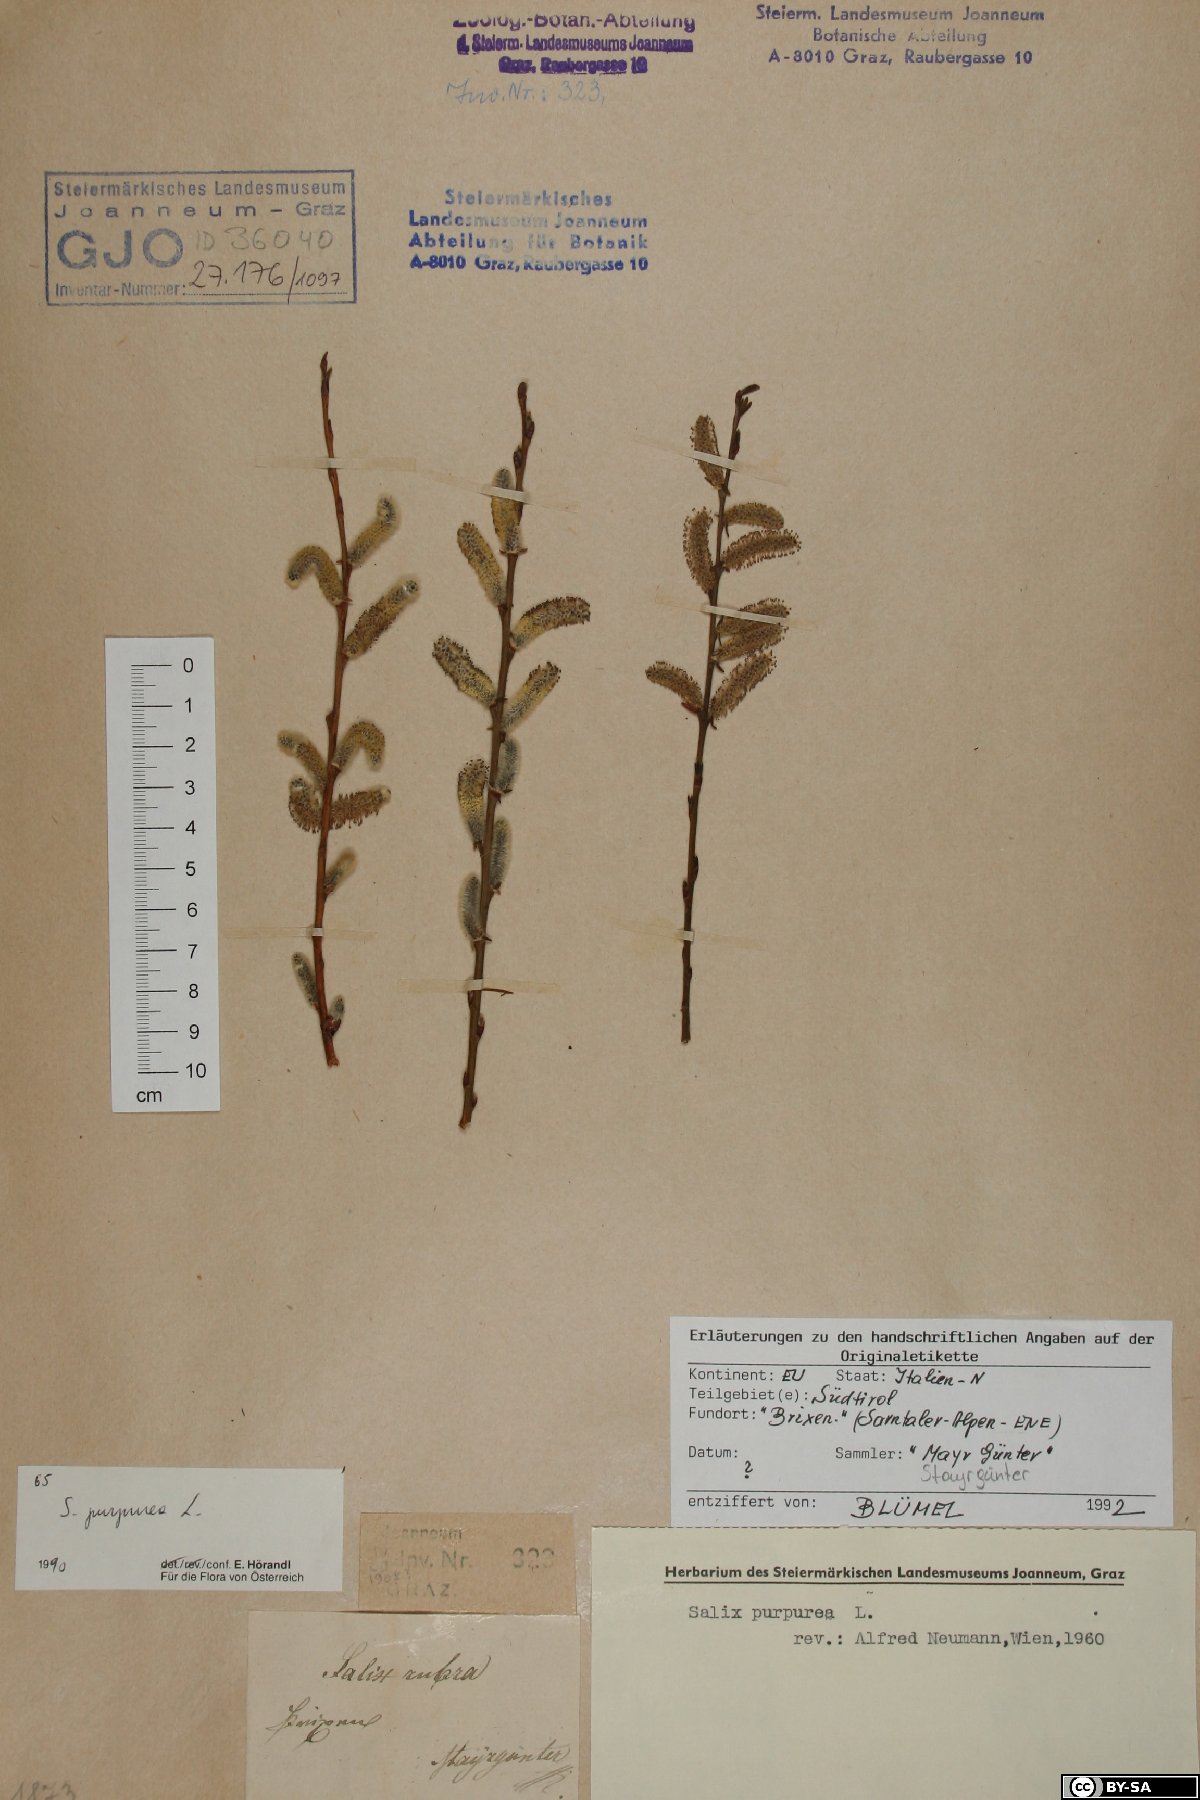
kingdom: Plantae
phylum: Tracheophyta
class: Magnoliopsida
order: Malpighiales
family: Salicaceae
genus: Salix
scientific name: Salix purpurea
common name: Purple willow
